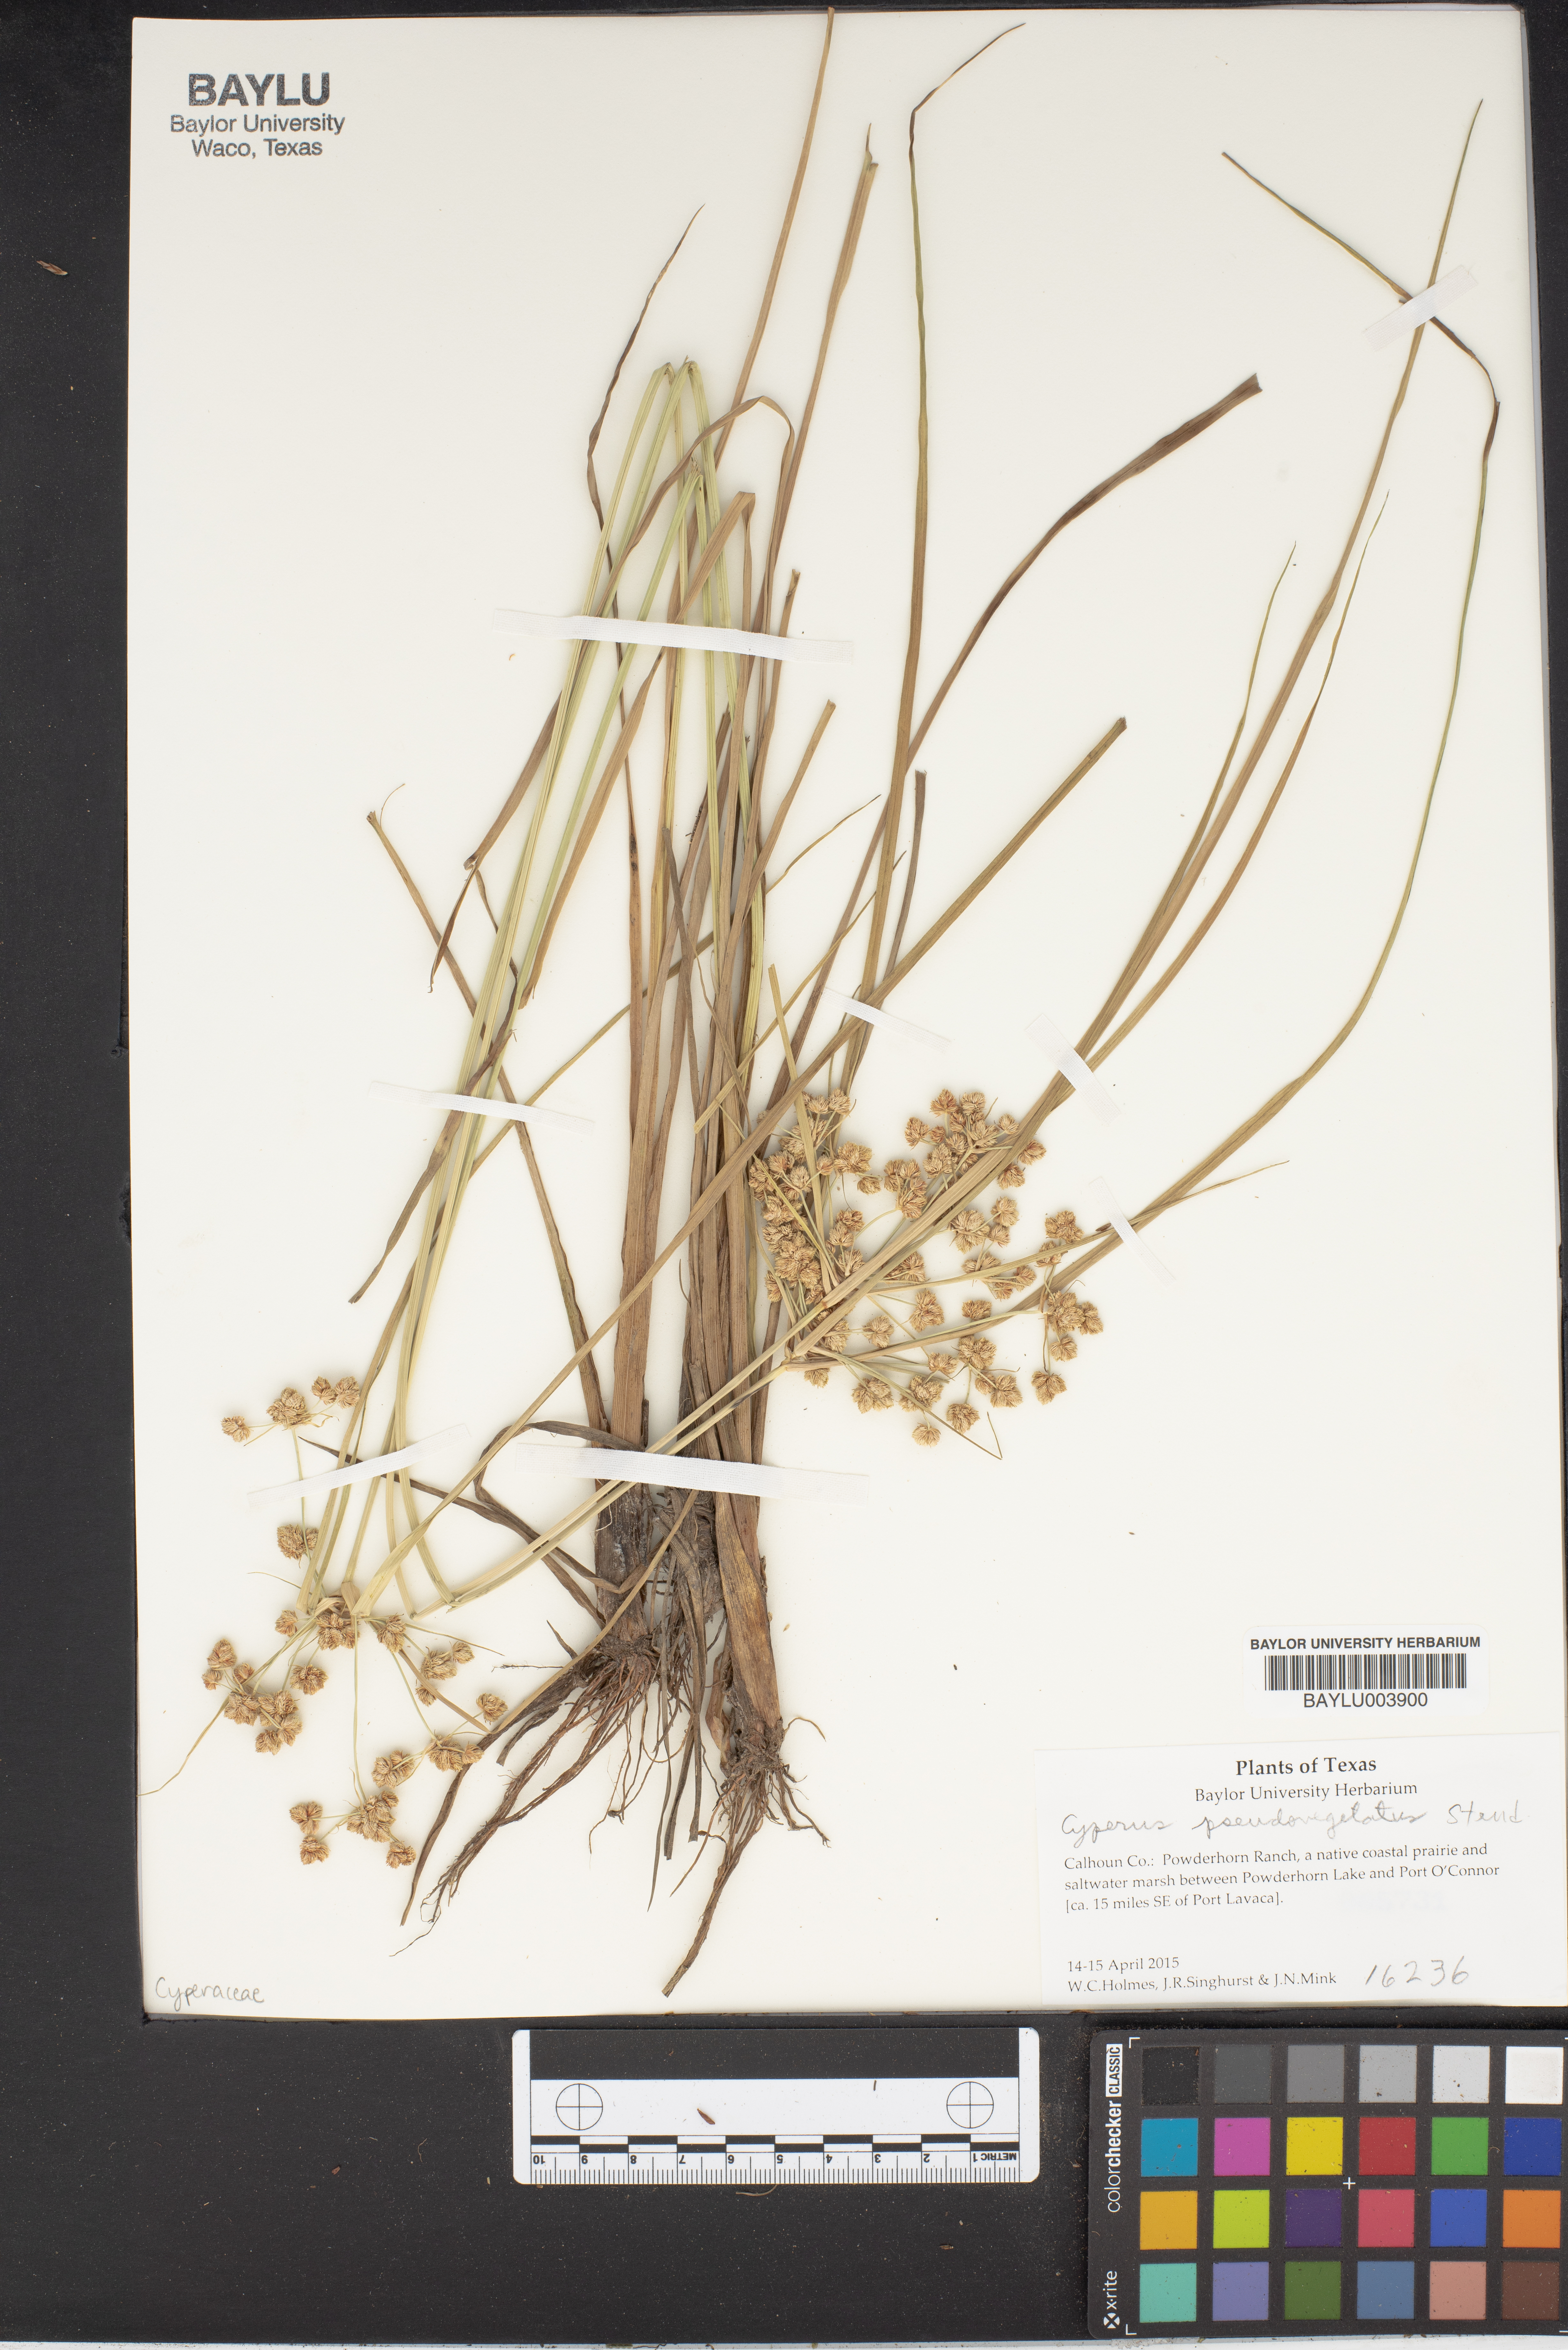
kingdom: Plantae
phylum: Tracheophyta
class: Liliopsida
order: Poales
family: Cyperaceae
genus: Cyperus
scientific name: Cyperus pseudovegetus
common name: Marsh flat sedge
